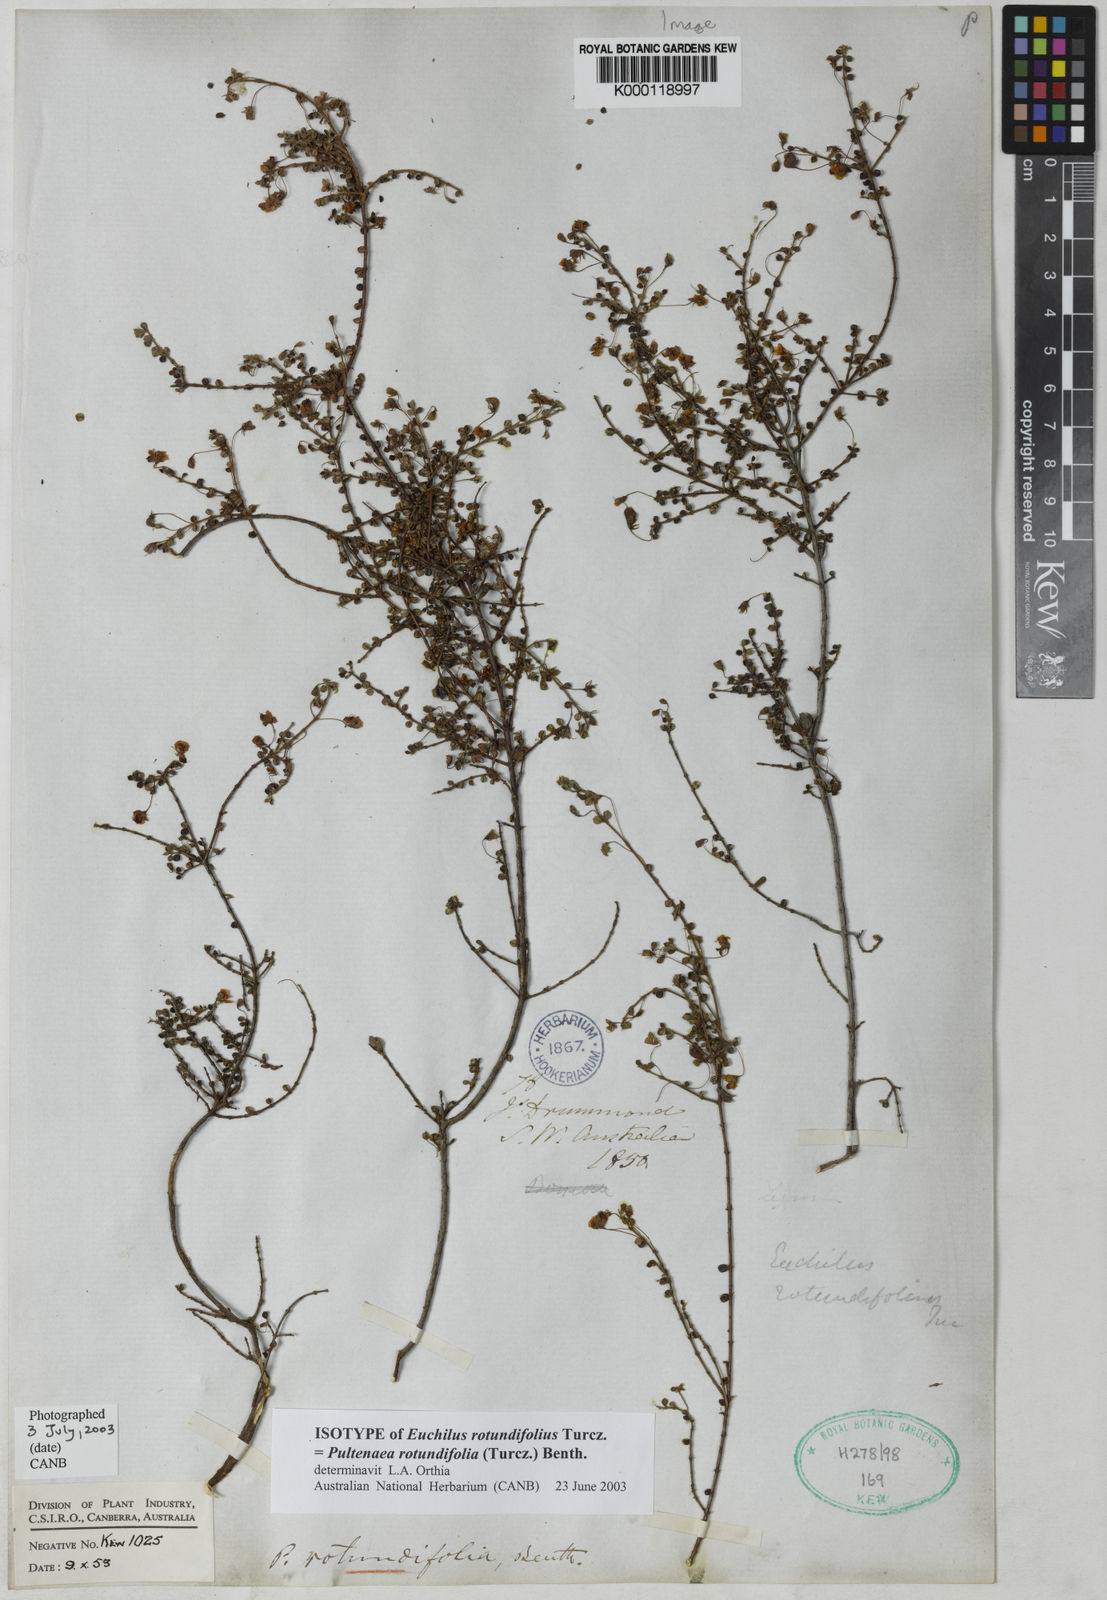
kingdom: Plantae
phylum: Tracheophyta
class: Magnoliopsida
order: Fabales
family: Fabaceae
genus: Pultenaea
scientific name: Pultenaea rotundifolia
